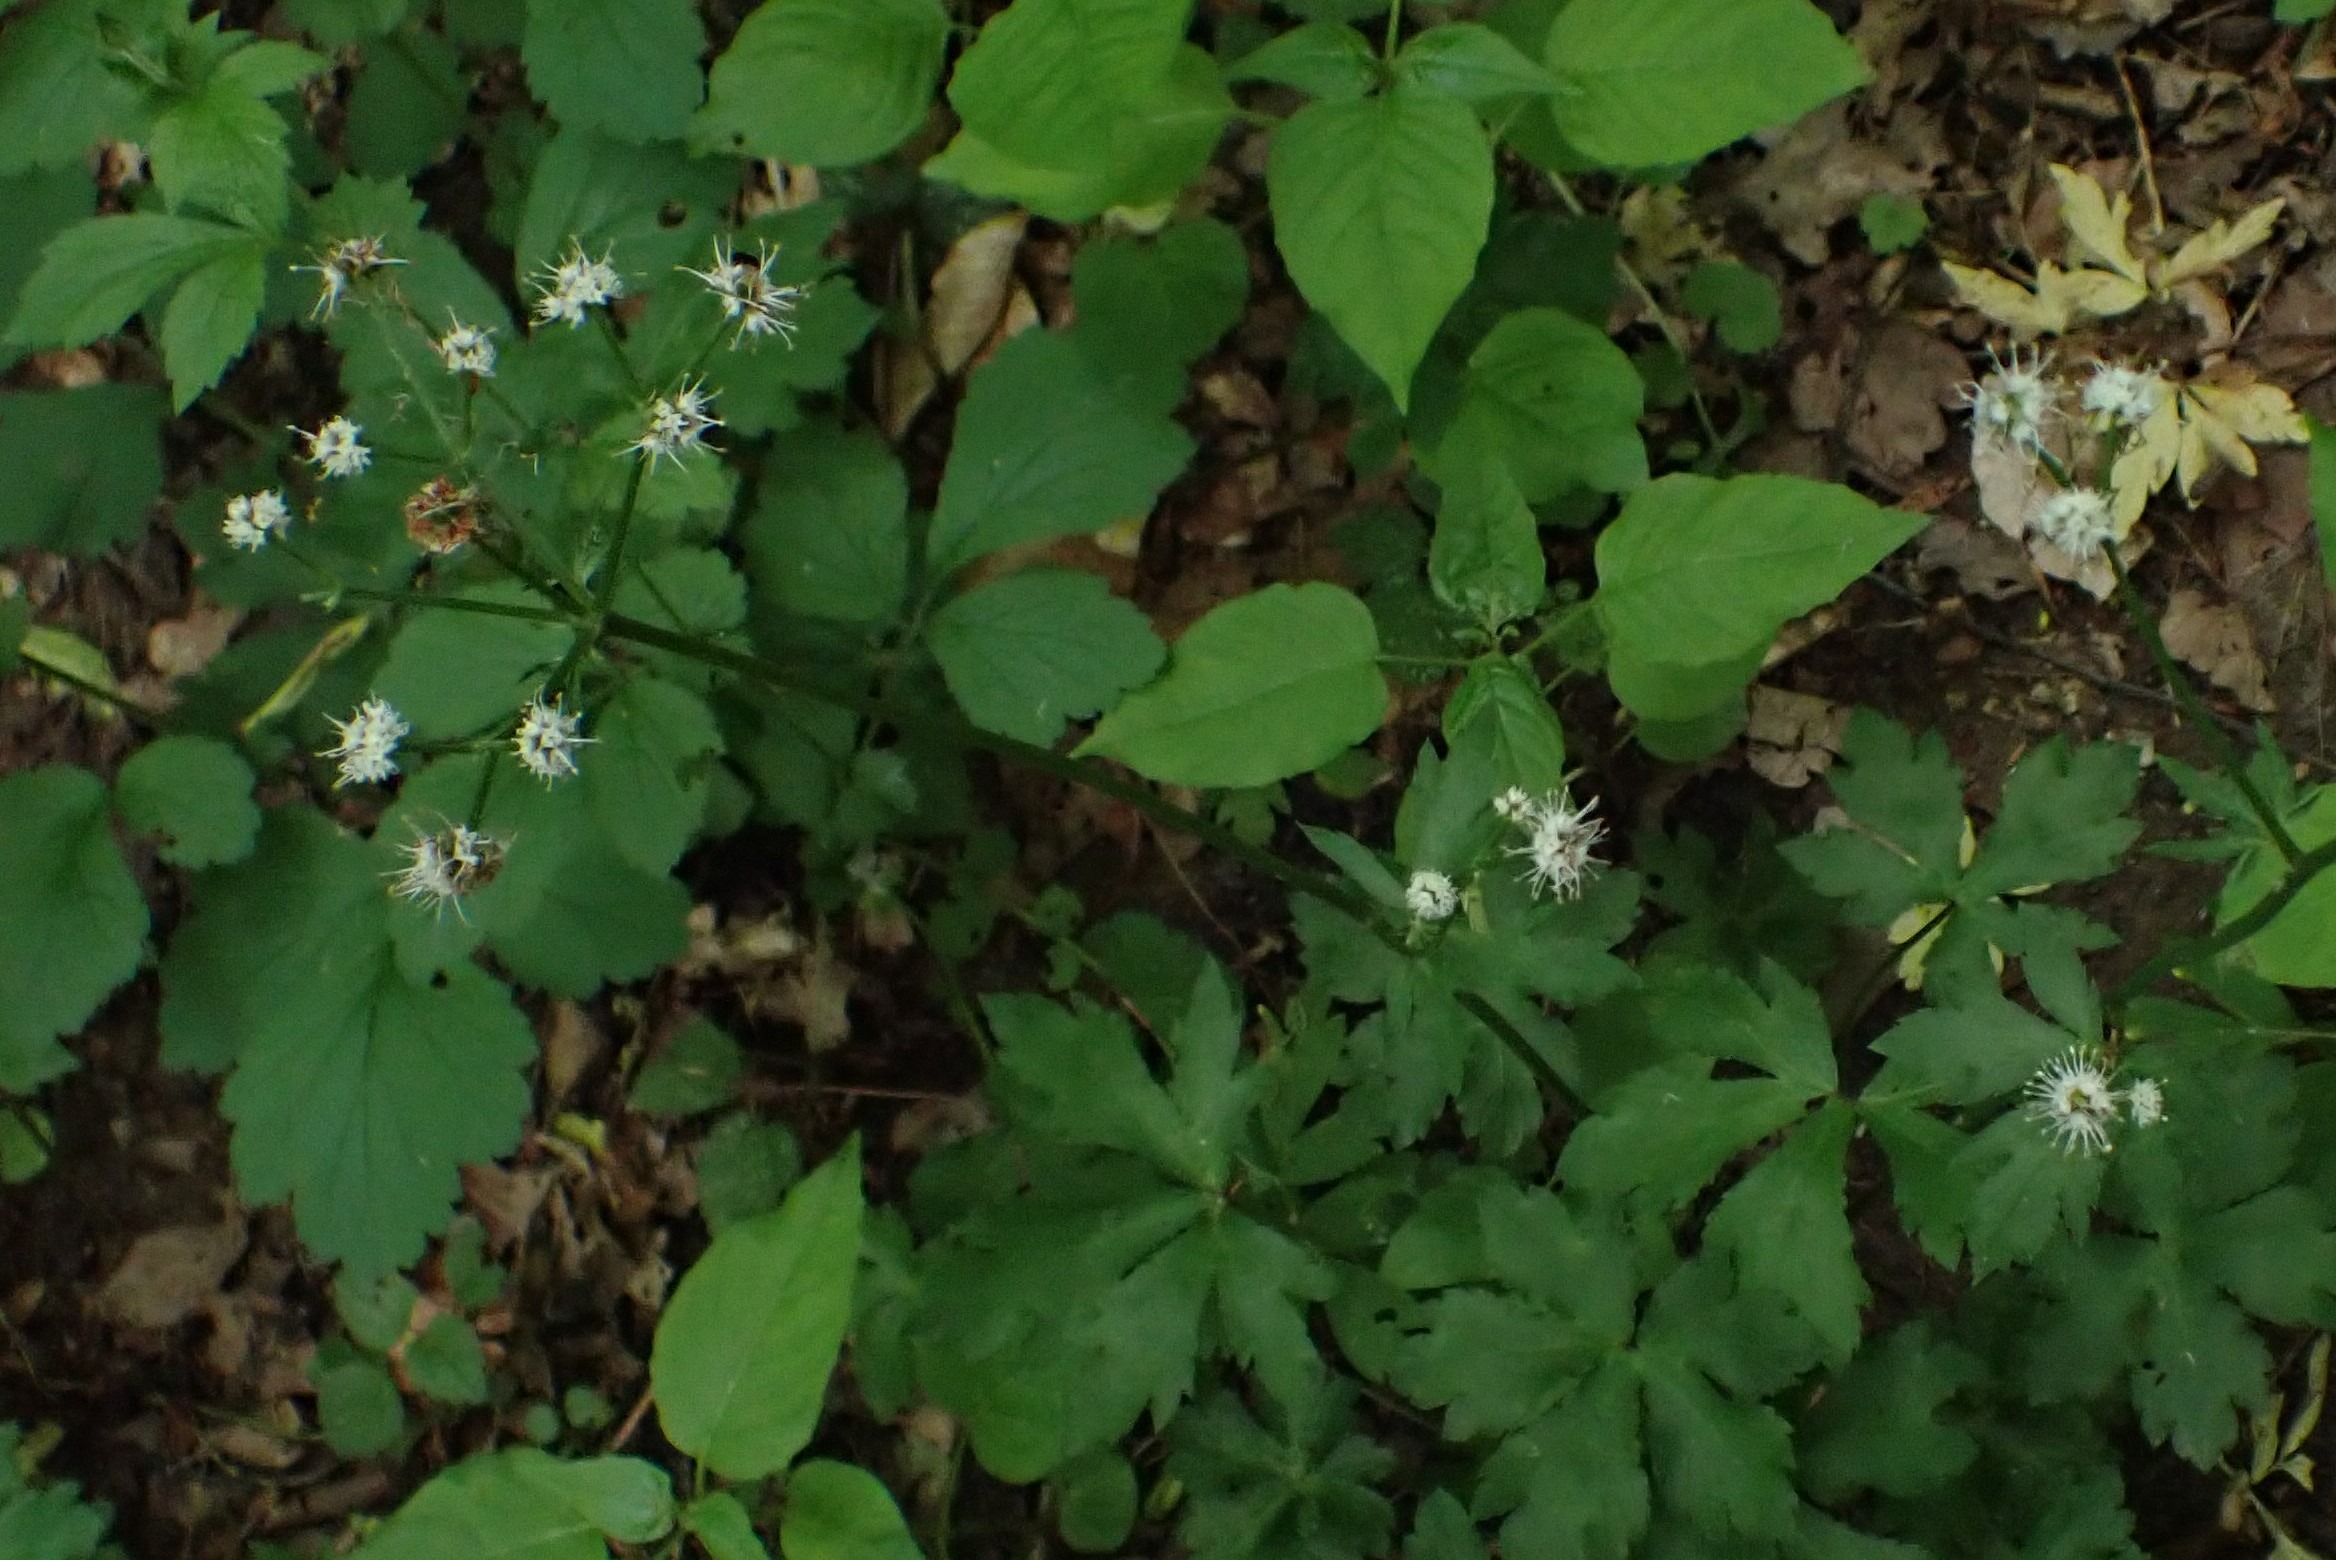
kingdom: Plantae
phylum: Tracheophyta
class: Magnoliopsida
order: Apiales
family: Apiaceae
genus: Sanicula
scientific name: Sanicula europaea
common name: Sanikel
